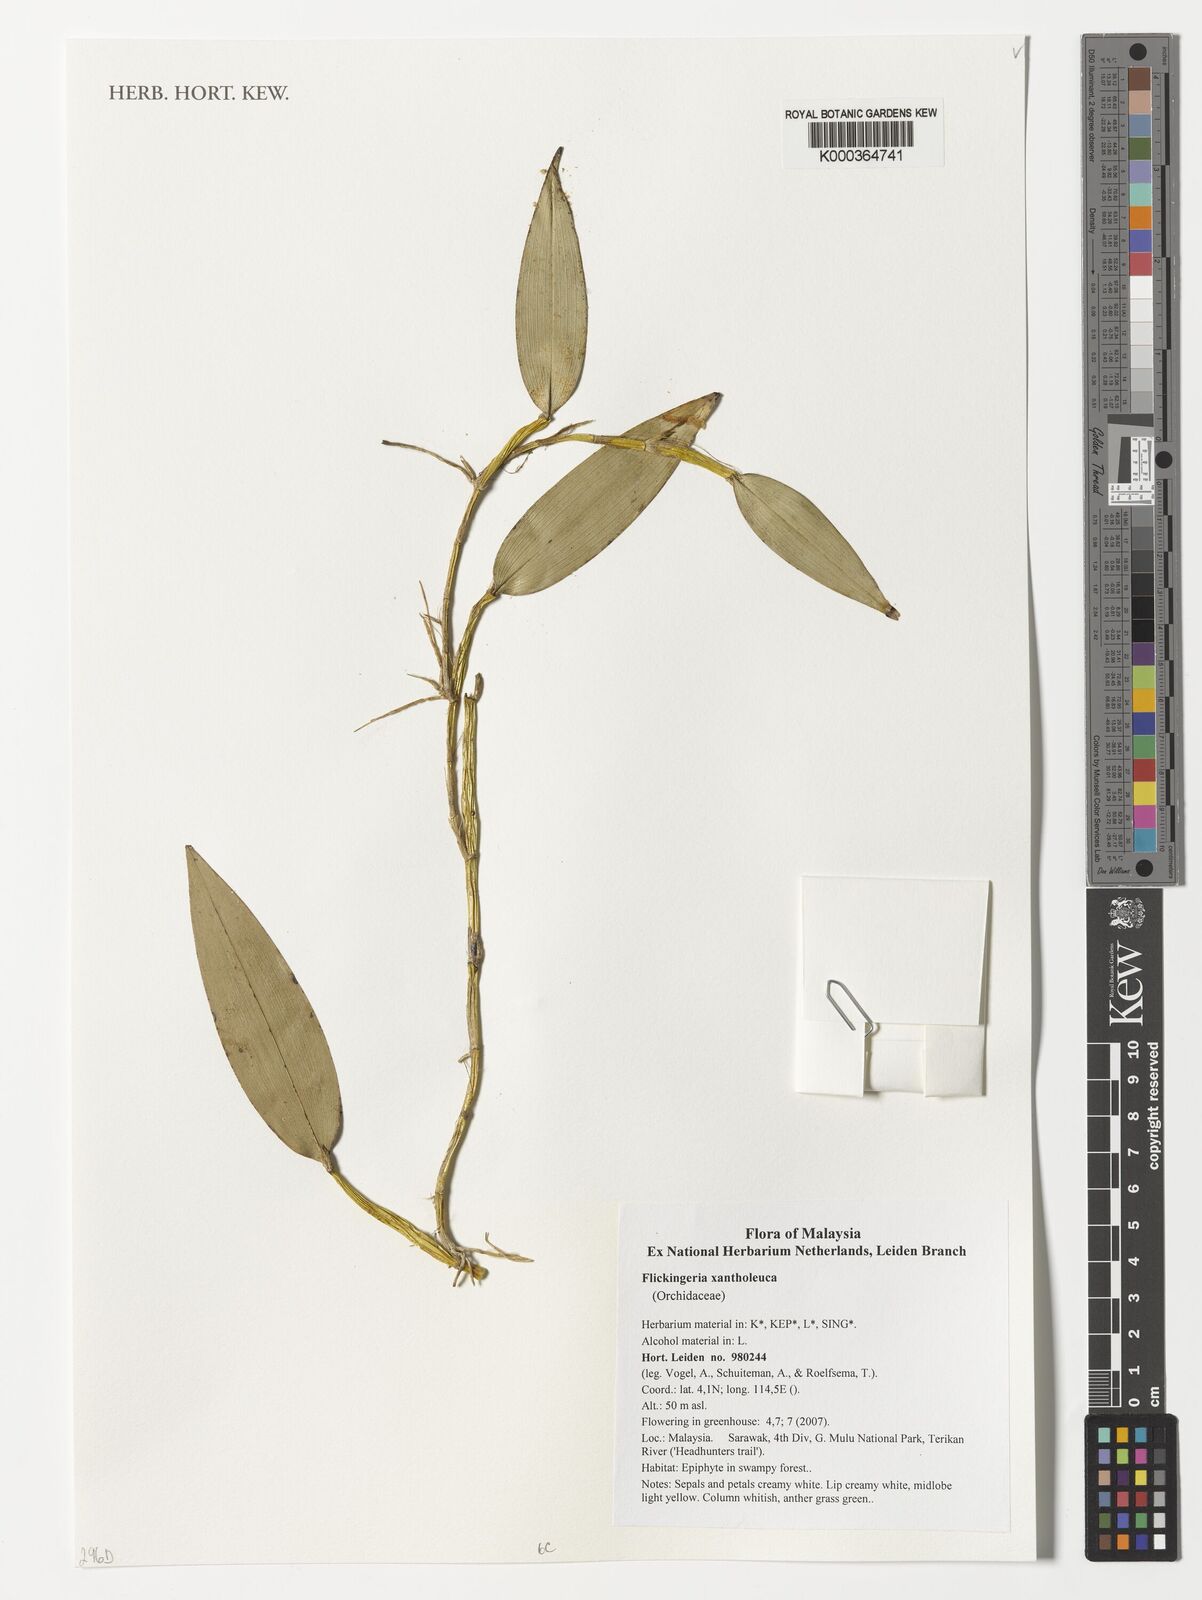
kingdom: Plantae
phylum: Tracheophyta
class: Liliopsida
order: Asparagales
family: Orchidaceae
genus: Dendrobium
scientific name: Dendrobium xantholeucum
